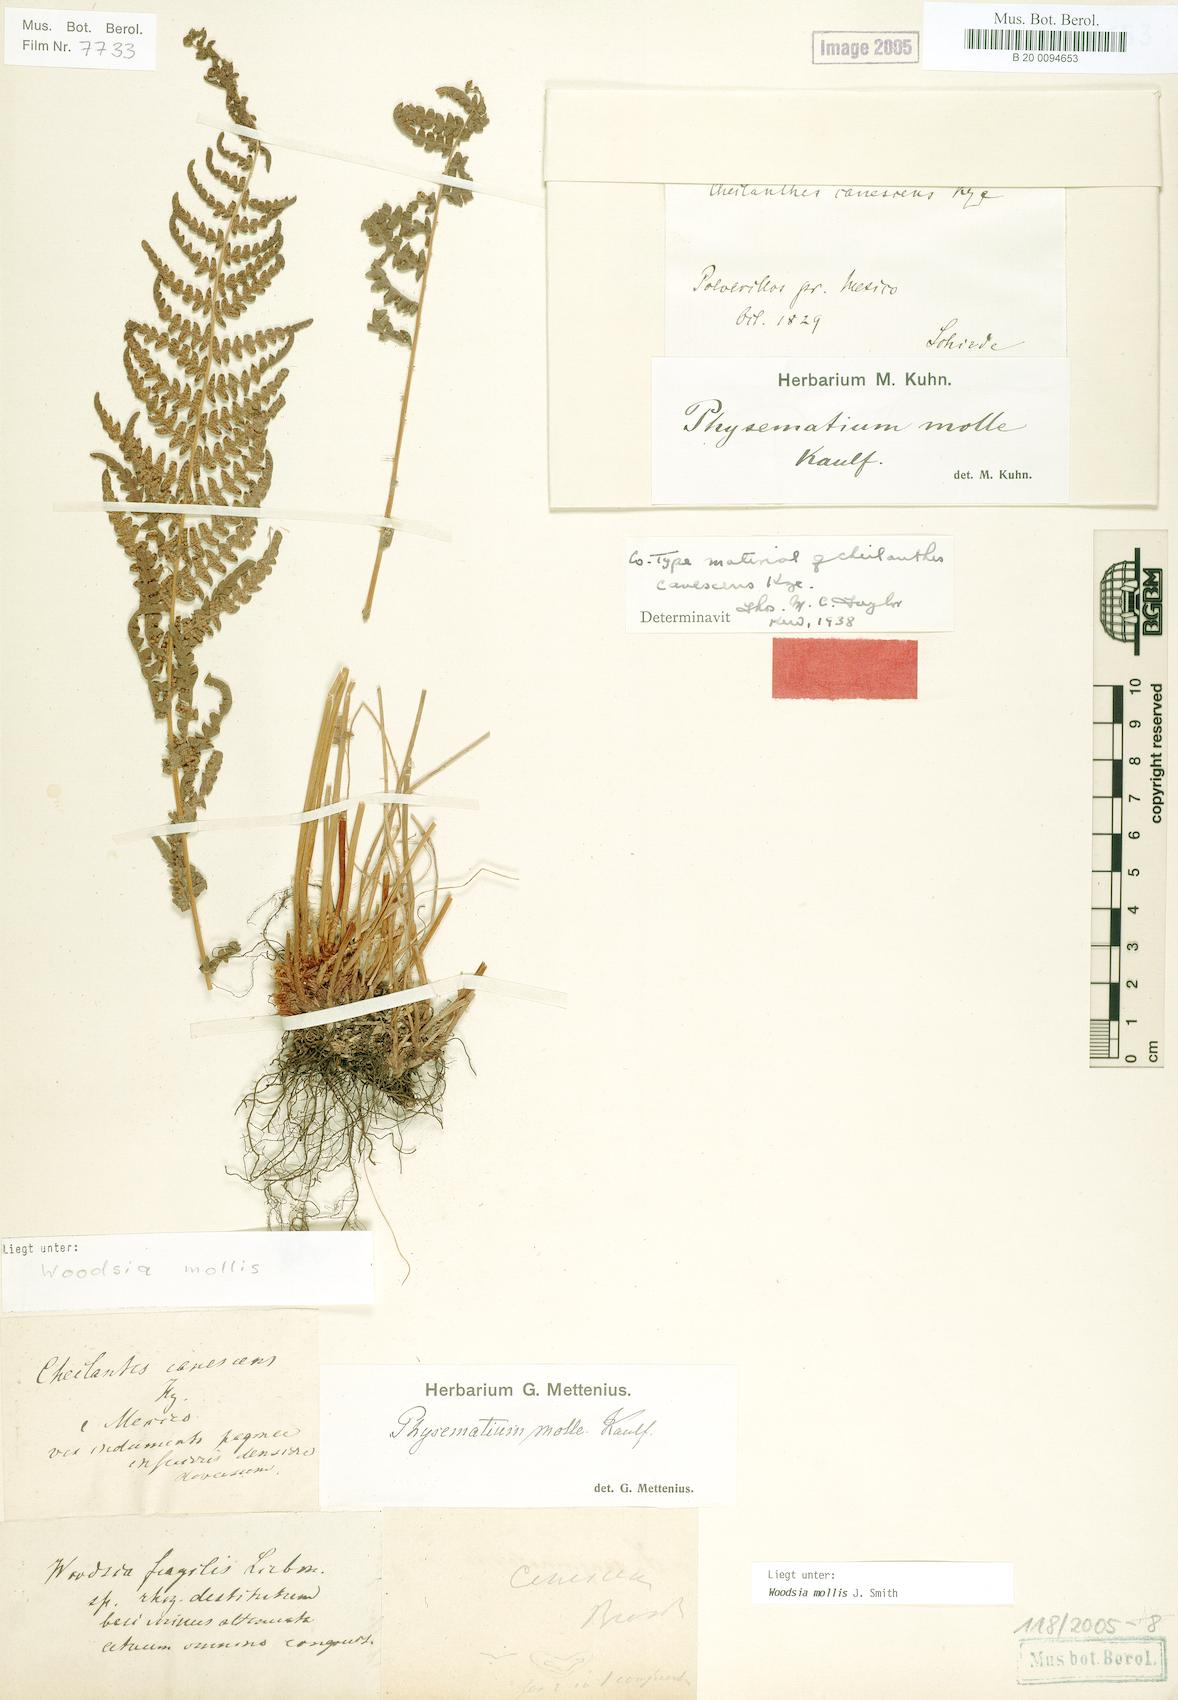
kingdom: Plantae
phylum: Tracheophyta
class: Polypodiopsida
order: Polypodiales
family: Woodsiaceae
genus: Physematium
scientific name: Physematium molle
